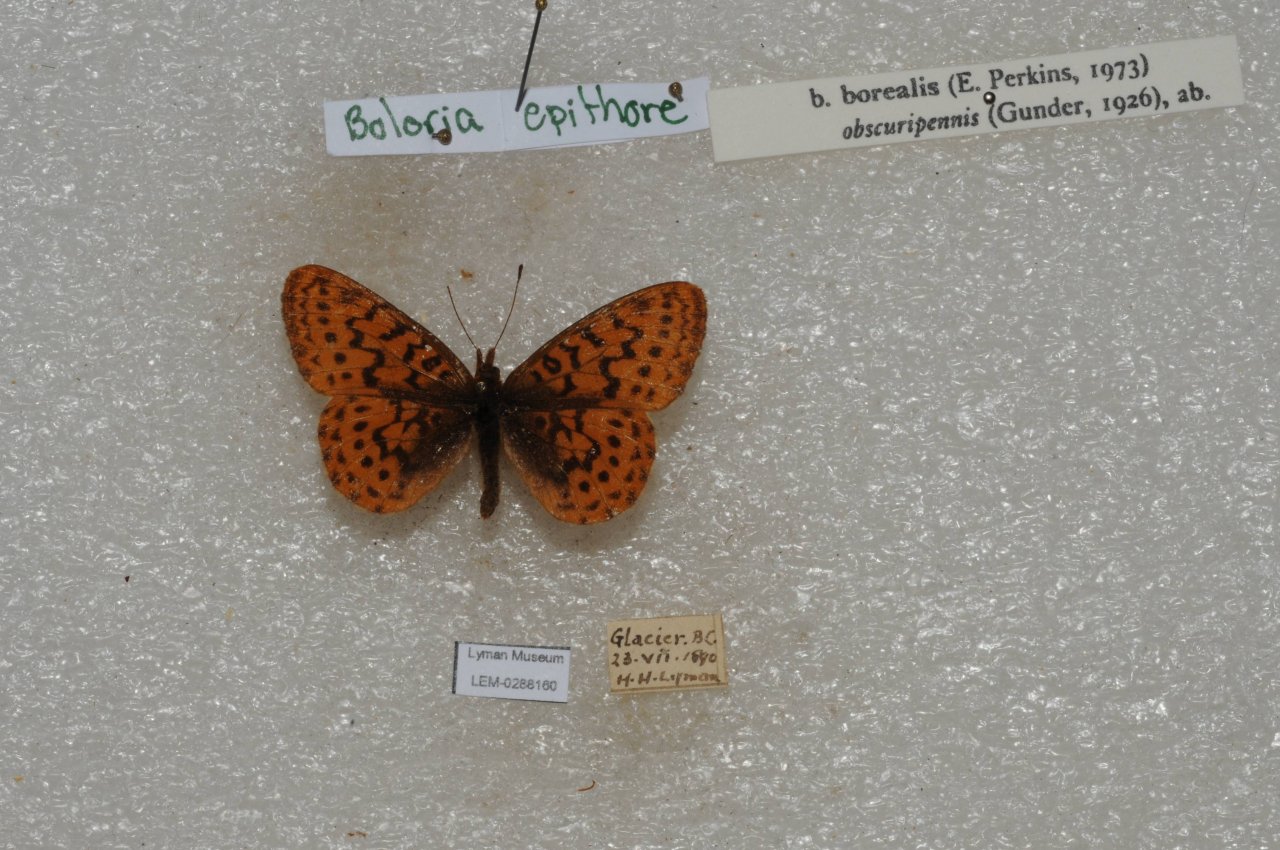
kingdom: Animalia
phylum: Arthropoda
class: Insecta
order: Lepidoptera
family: Nymphalidae
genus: Boloria
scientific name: Boloria epithore
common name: Pacific Fritillary
